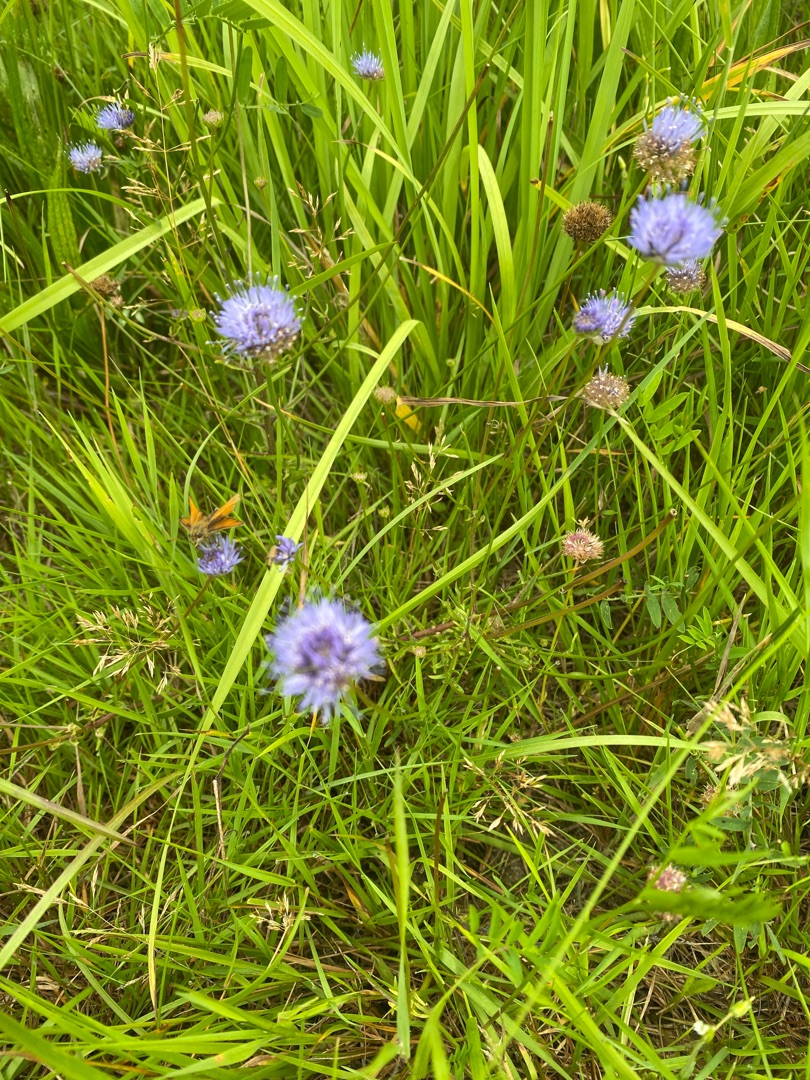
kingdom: Plantae
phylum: Tracheophyta
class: Magnoliopsida
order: Asterales
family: Campanulaceae
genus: Jasione
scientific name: Jasione montana
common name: Blåmunke
